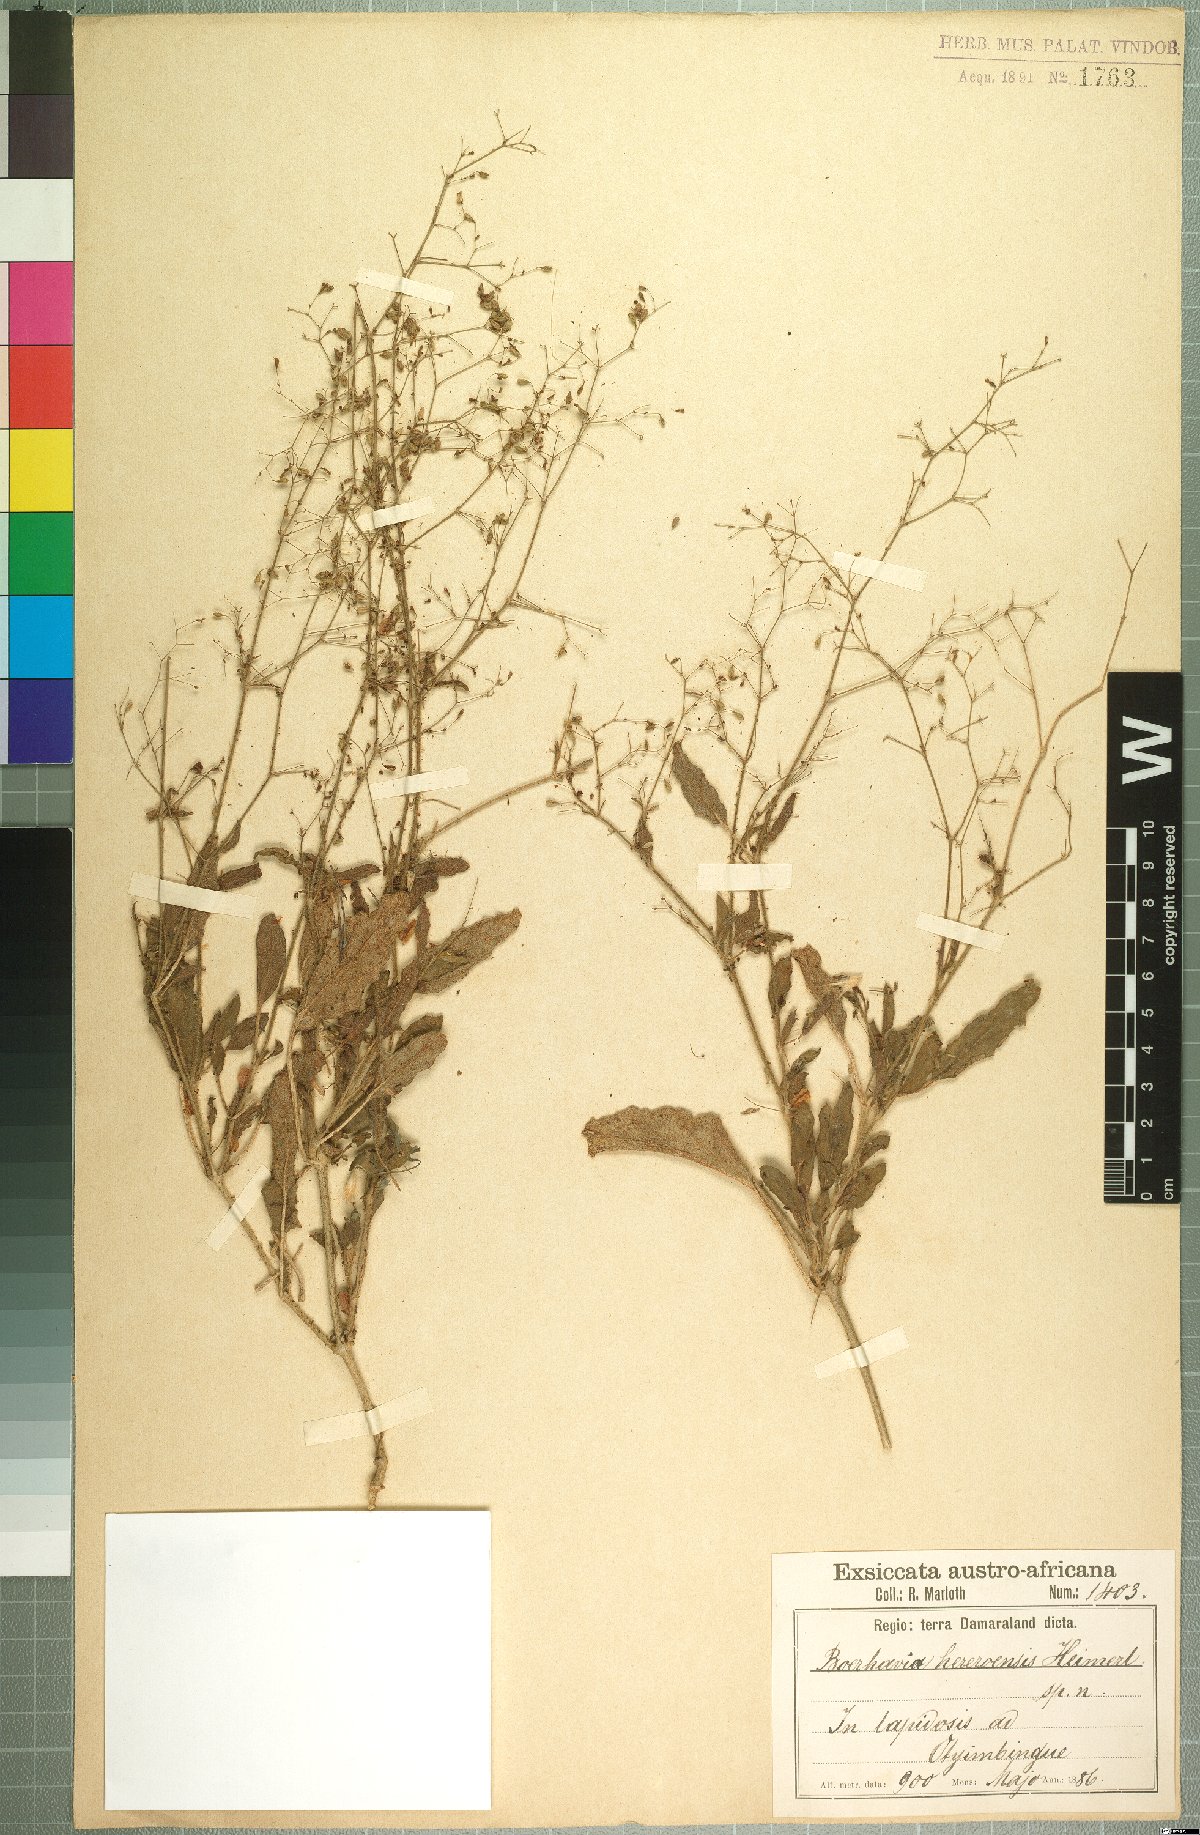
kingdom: Plantae
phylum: Tracheophyta
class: Magnoliopsida
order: Caryophyllales
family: Nyctaginaceae
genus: Boerhavia
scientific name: Boerhavia hereroensis
